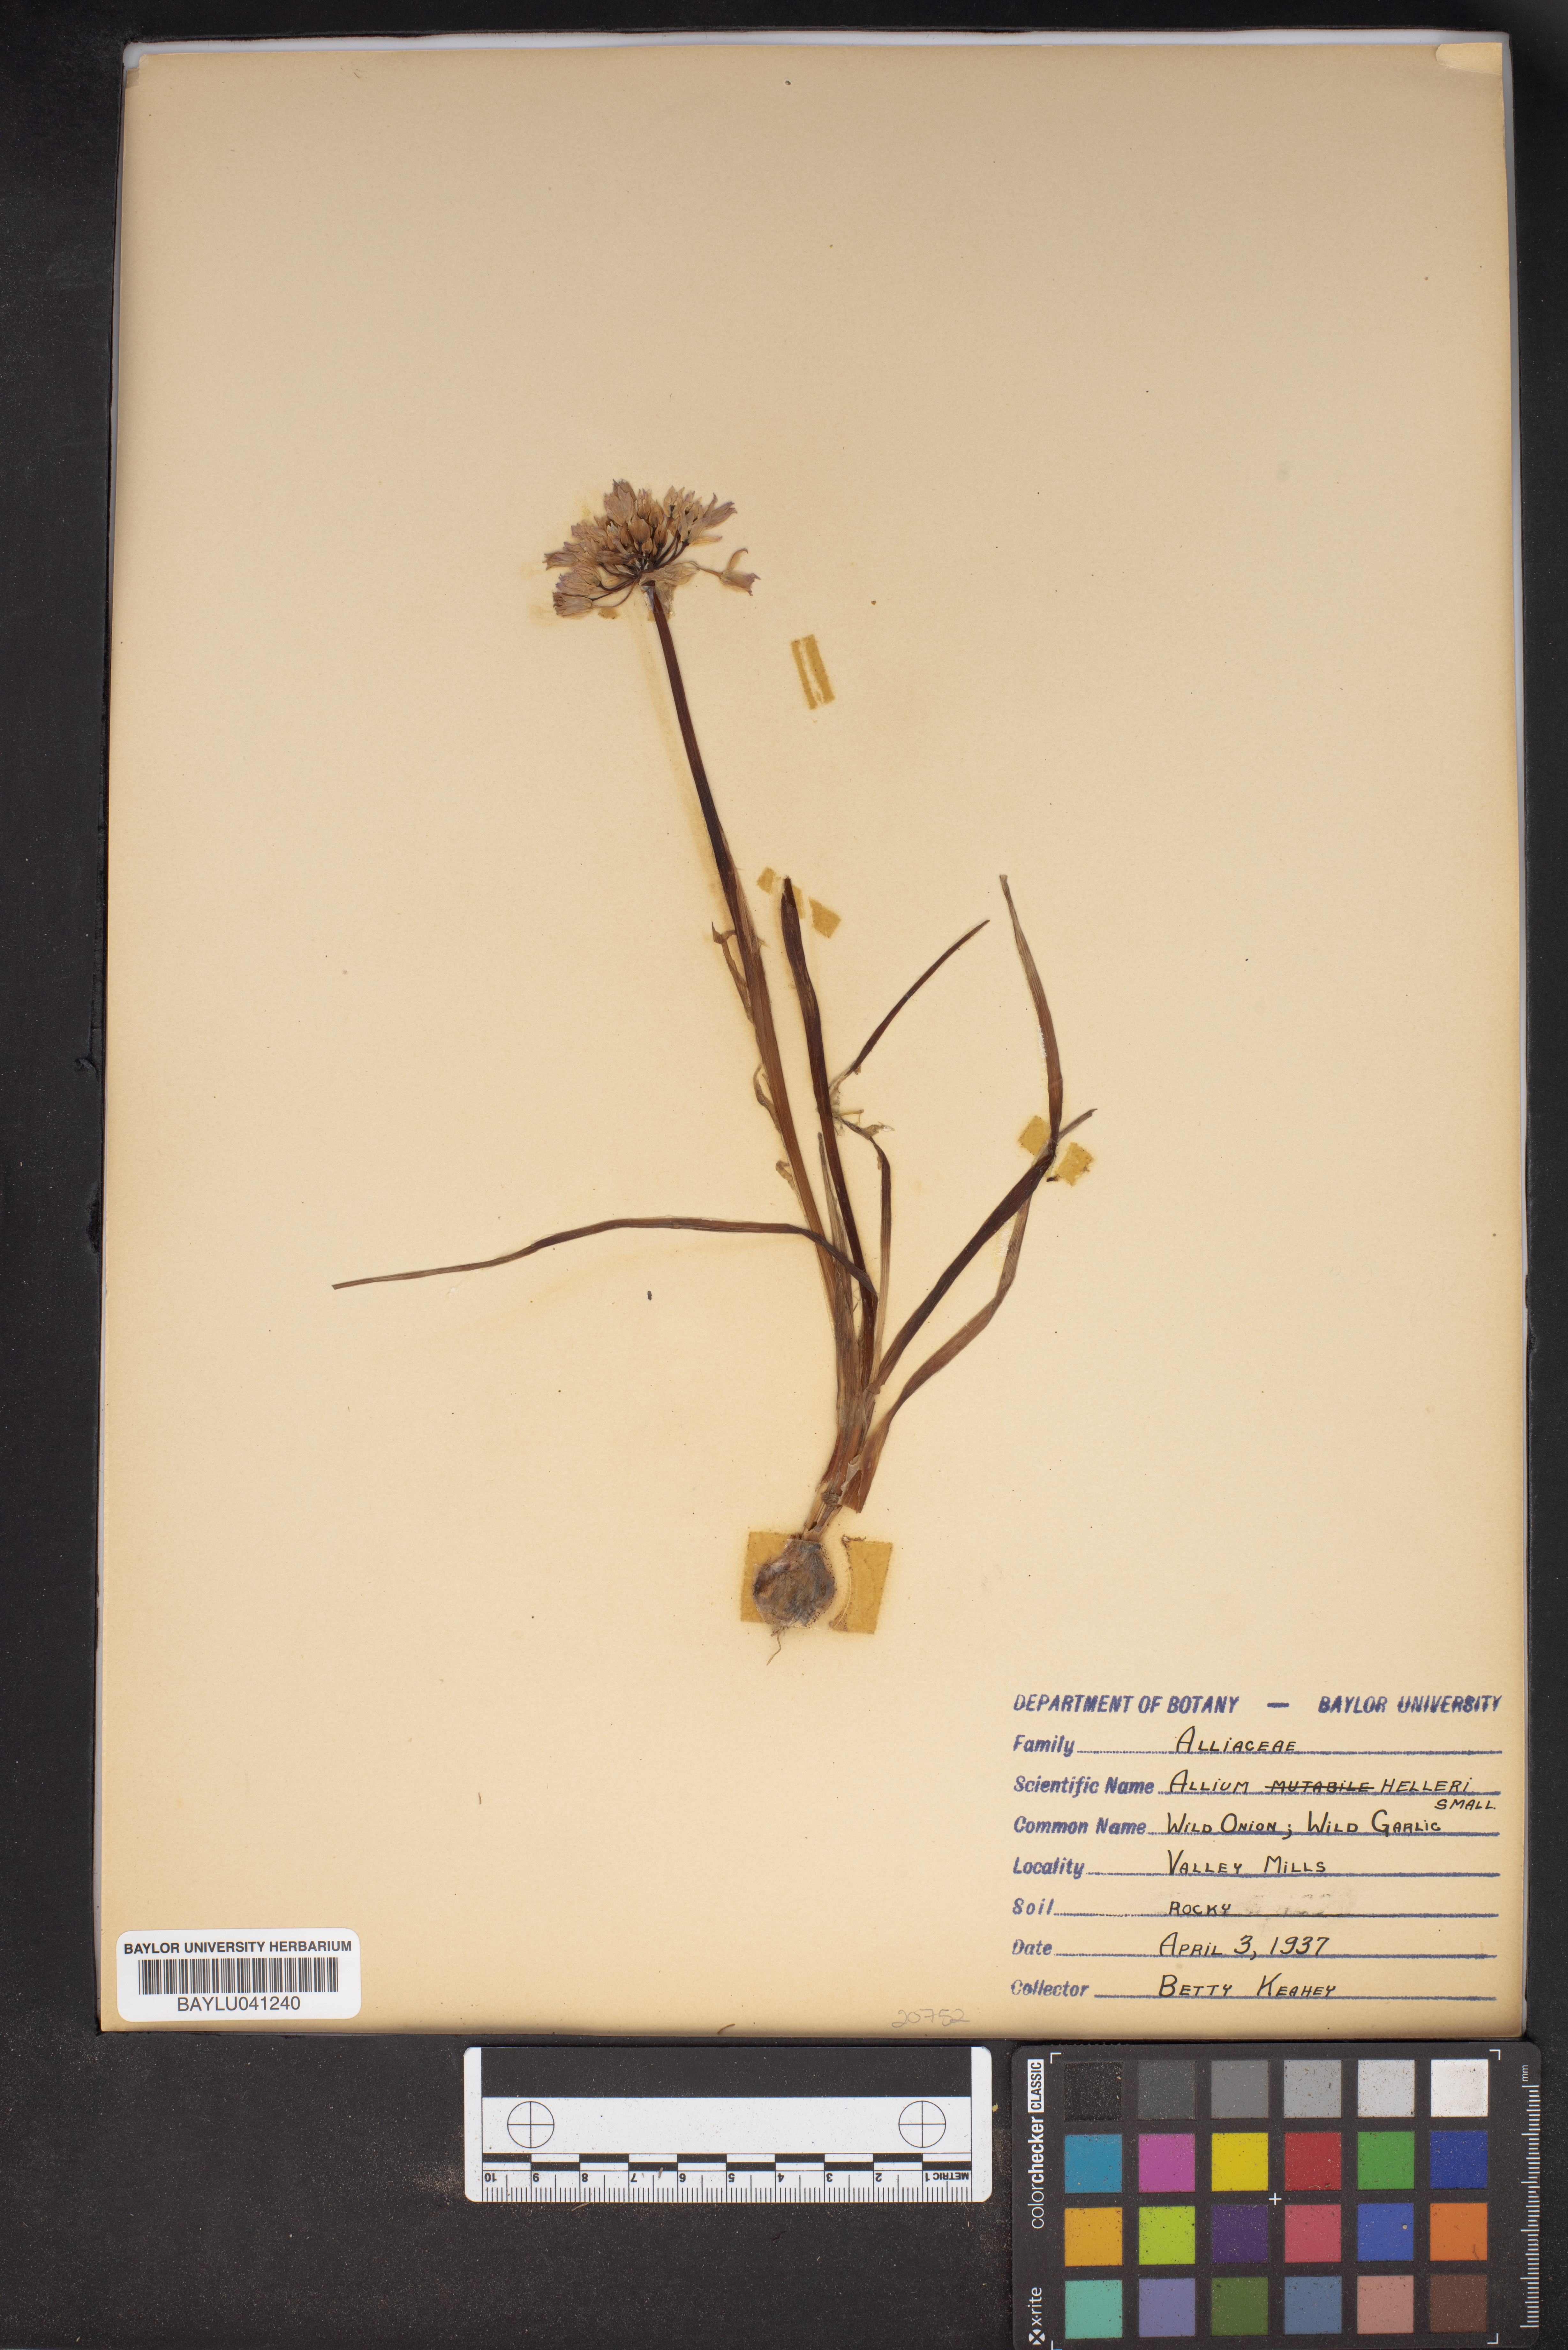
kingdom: Plantae
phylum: Tracheophyta
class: Liliopsida
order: Asparagales
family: Amaryllidaceae
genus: Allium
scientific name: Allium drummondii
